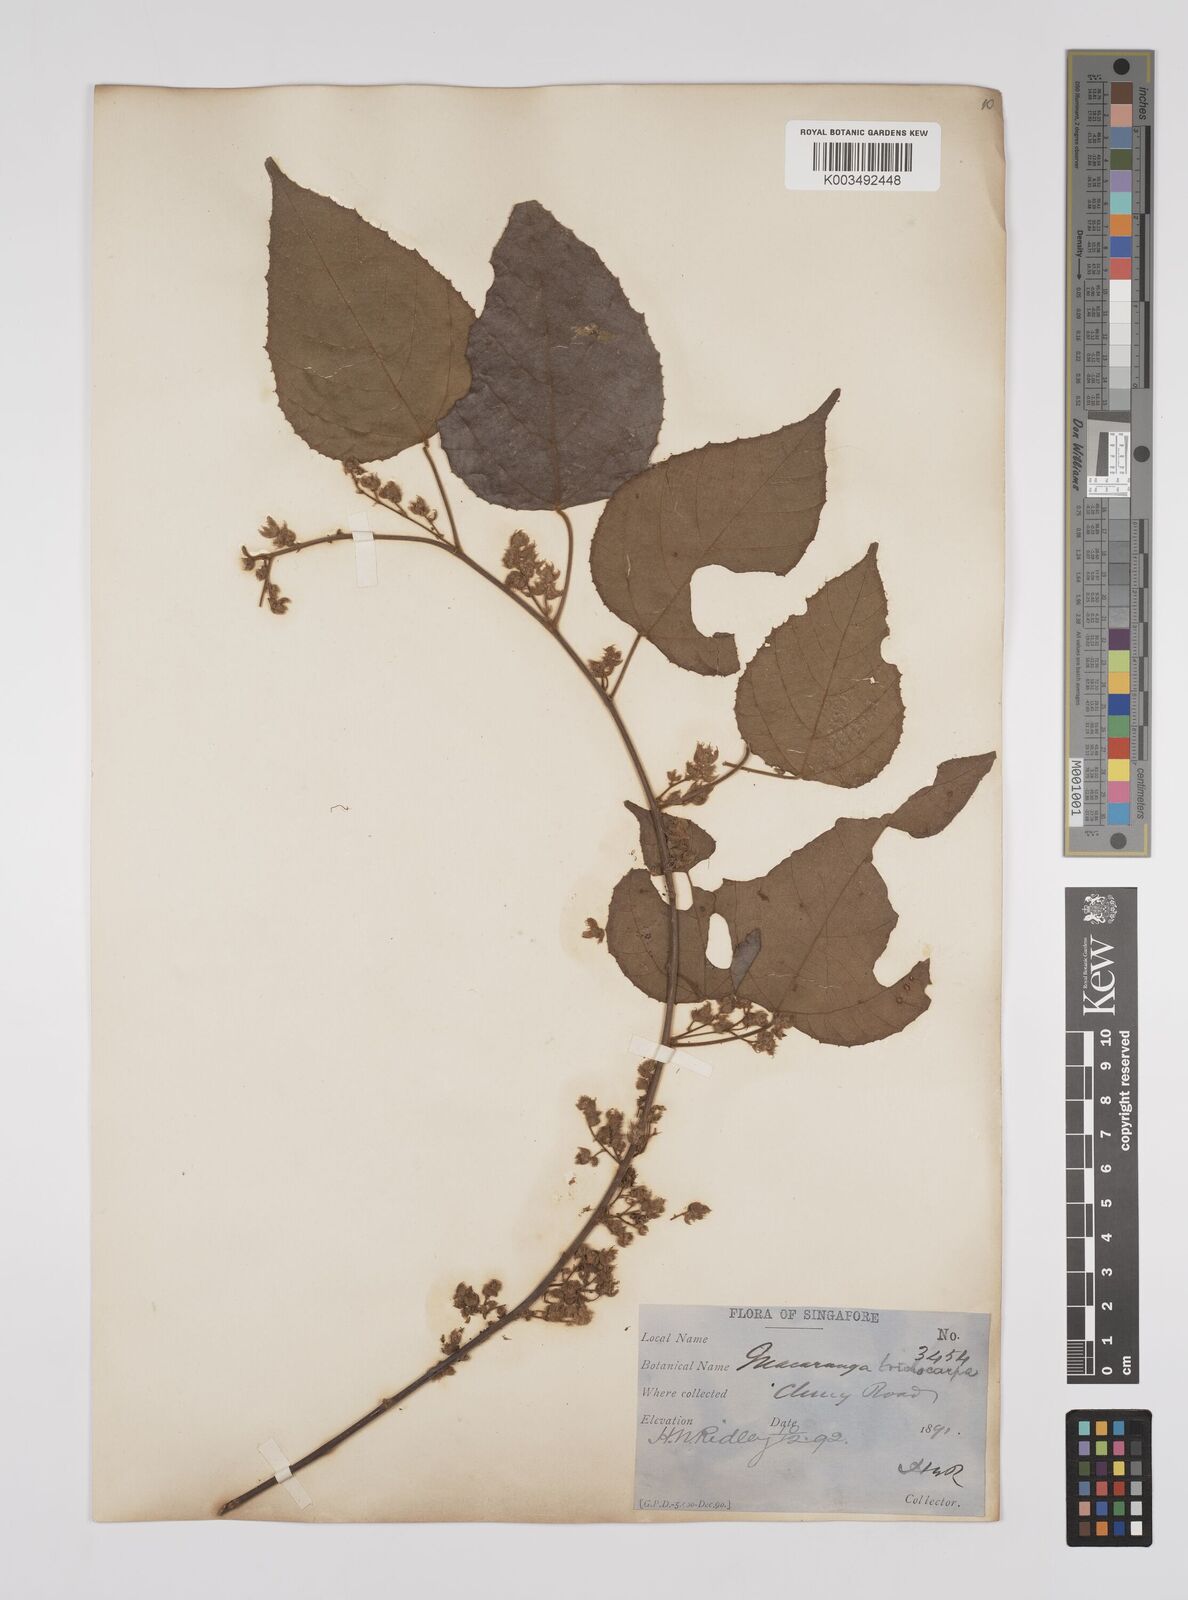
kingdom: Plantae
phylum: Tracheophyta
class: Magnoliopsida
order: Malpighiales
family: Euphorbiaceae
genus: Macaranga
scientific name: Macaranga trichocarpa
